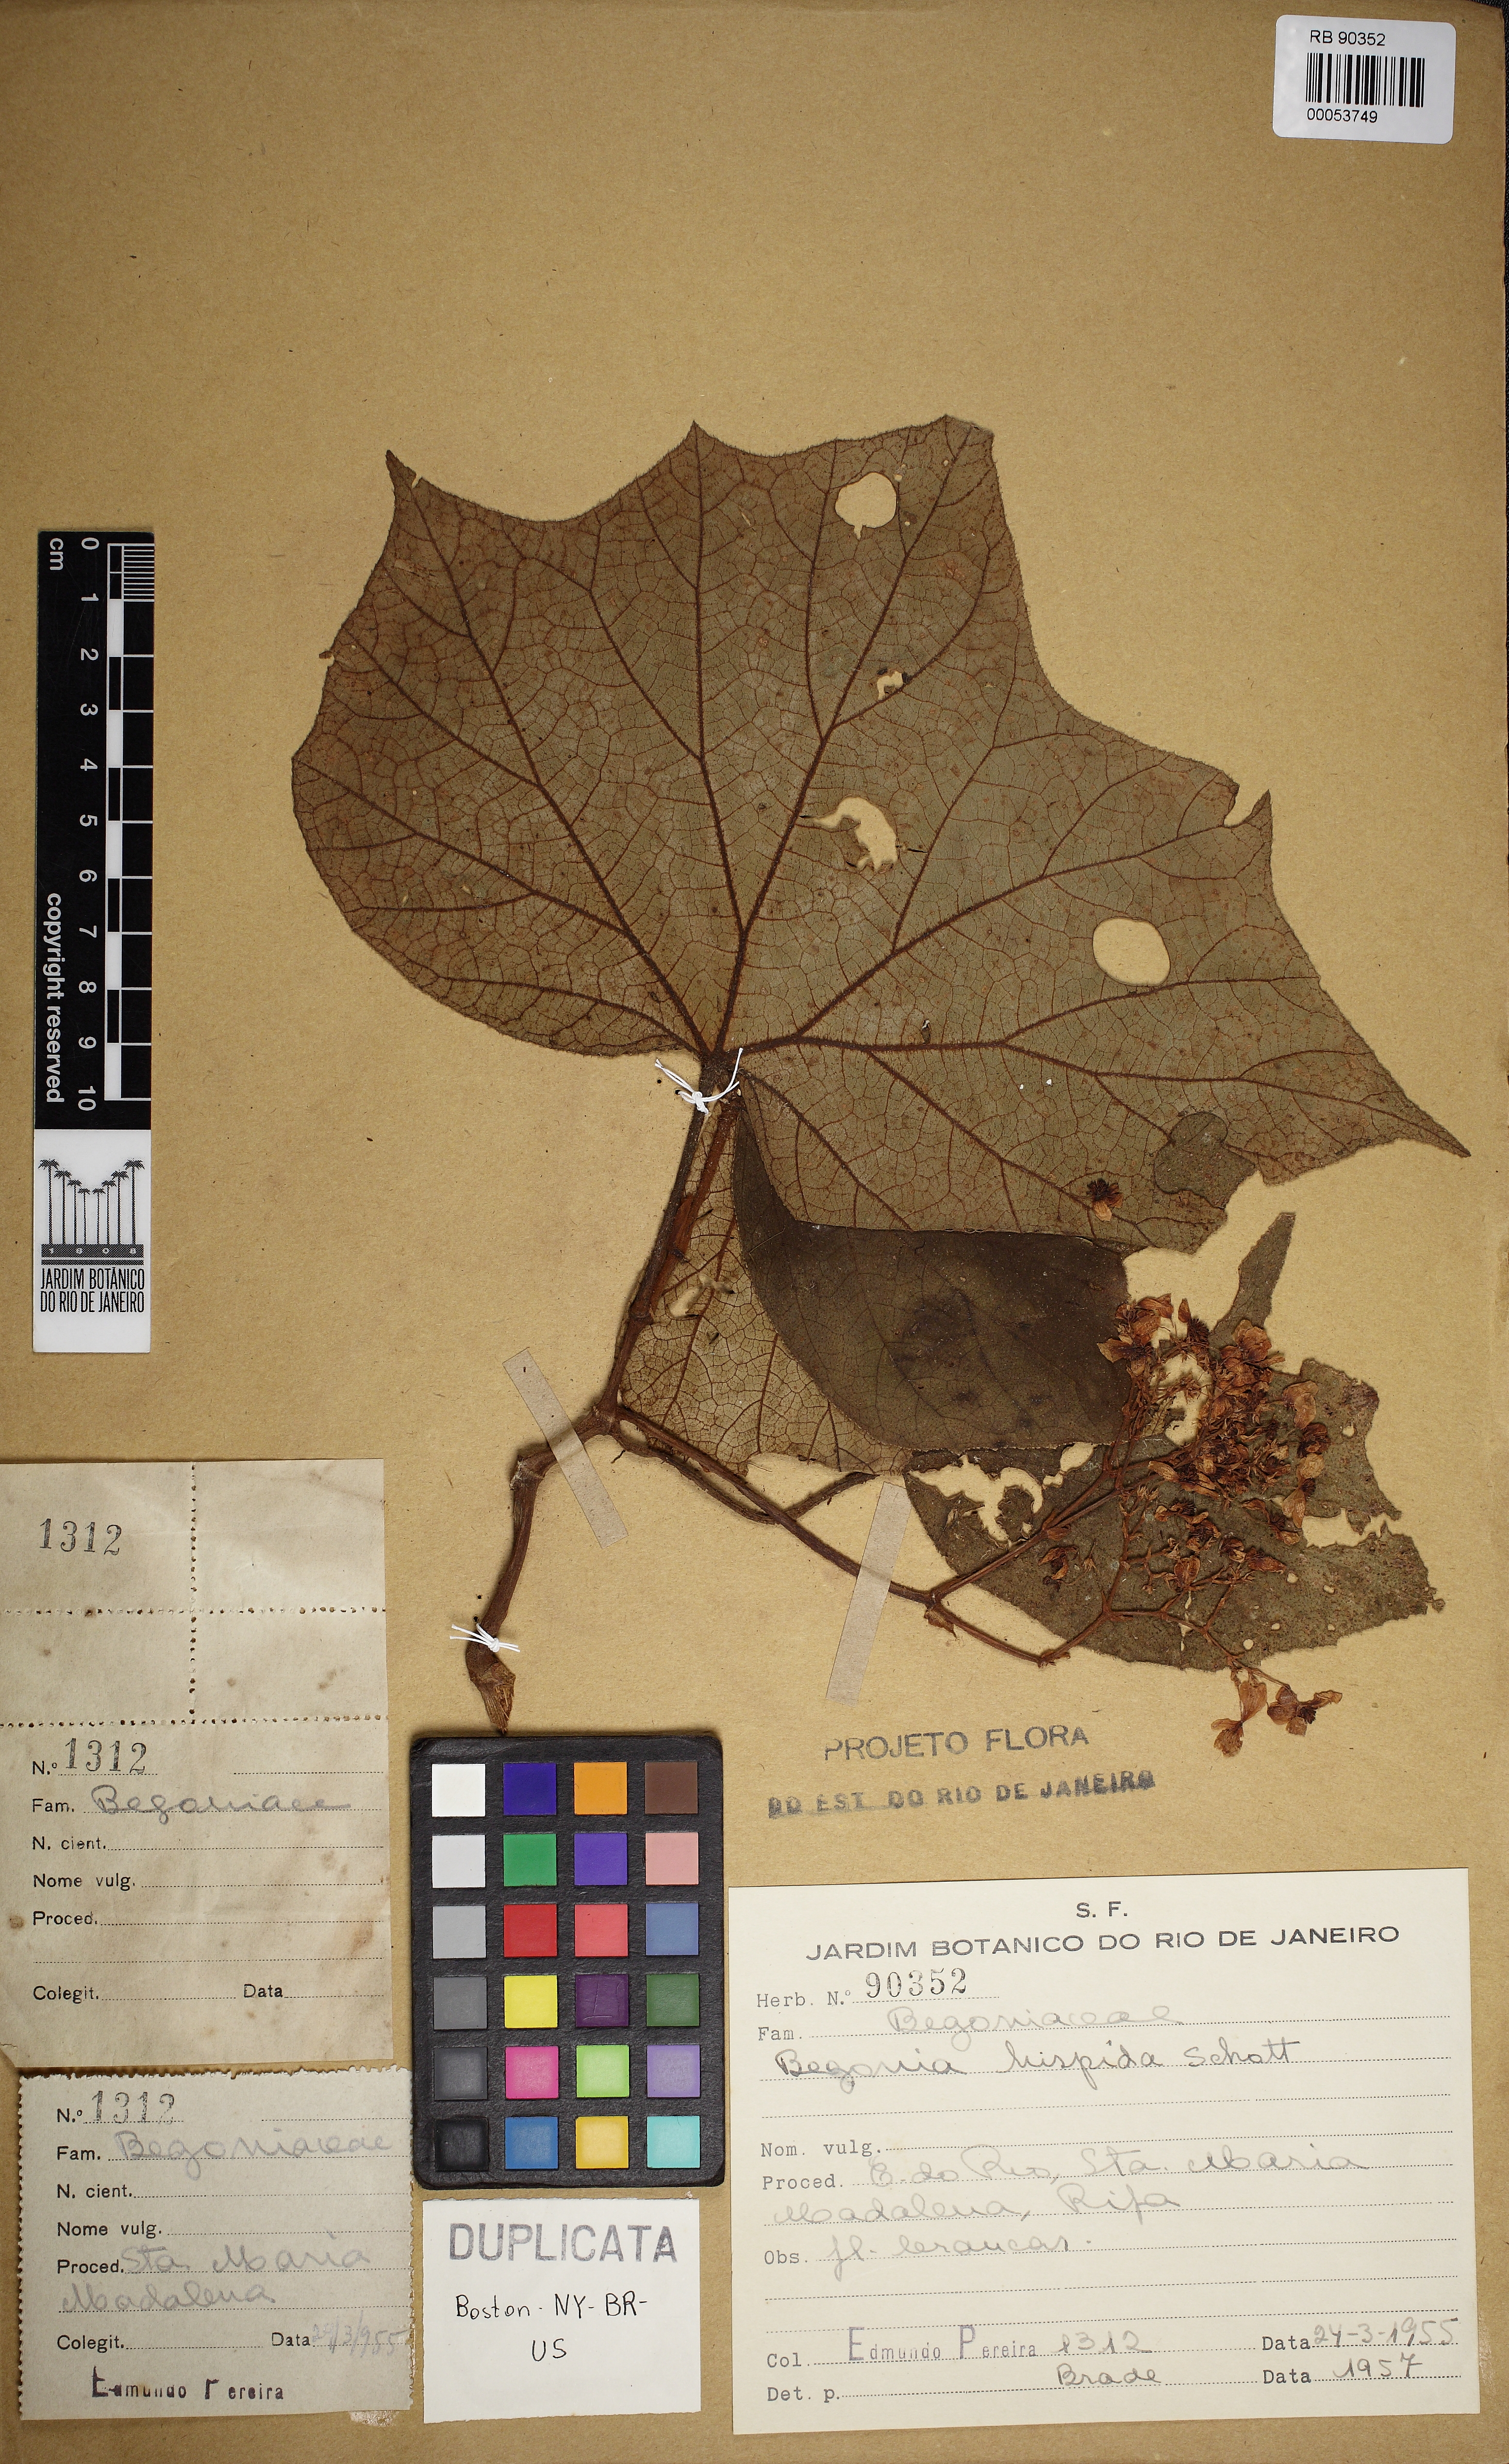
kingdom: Plantae
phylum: Tracheophyta
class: Magnoliopsida
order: Cucurbitales
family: Begoniaceae
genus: Begonia
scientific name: Begonia hispida
